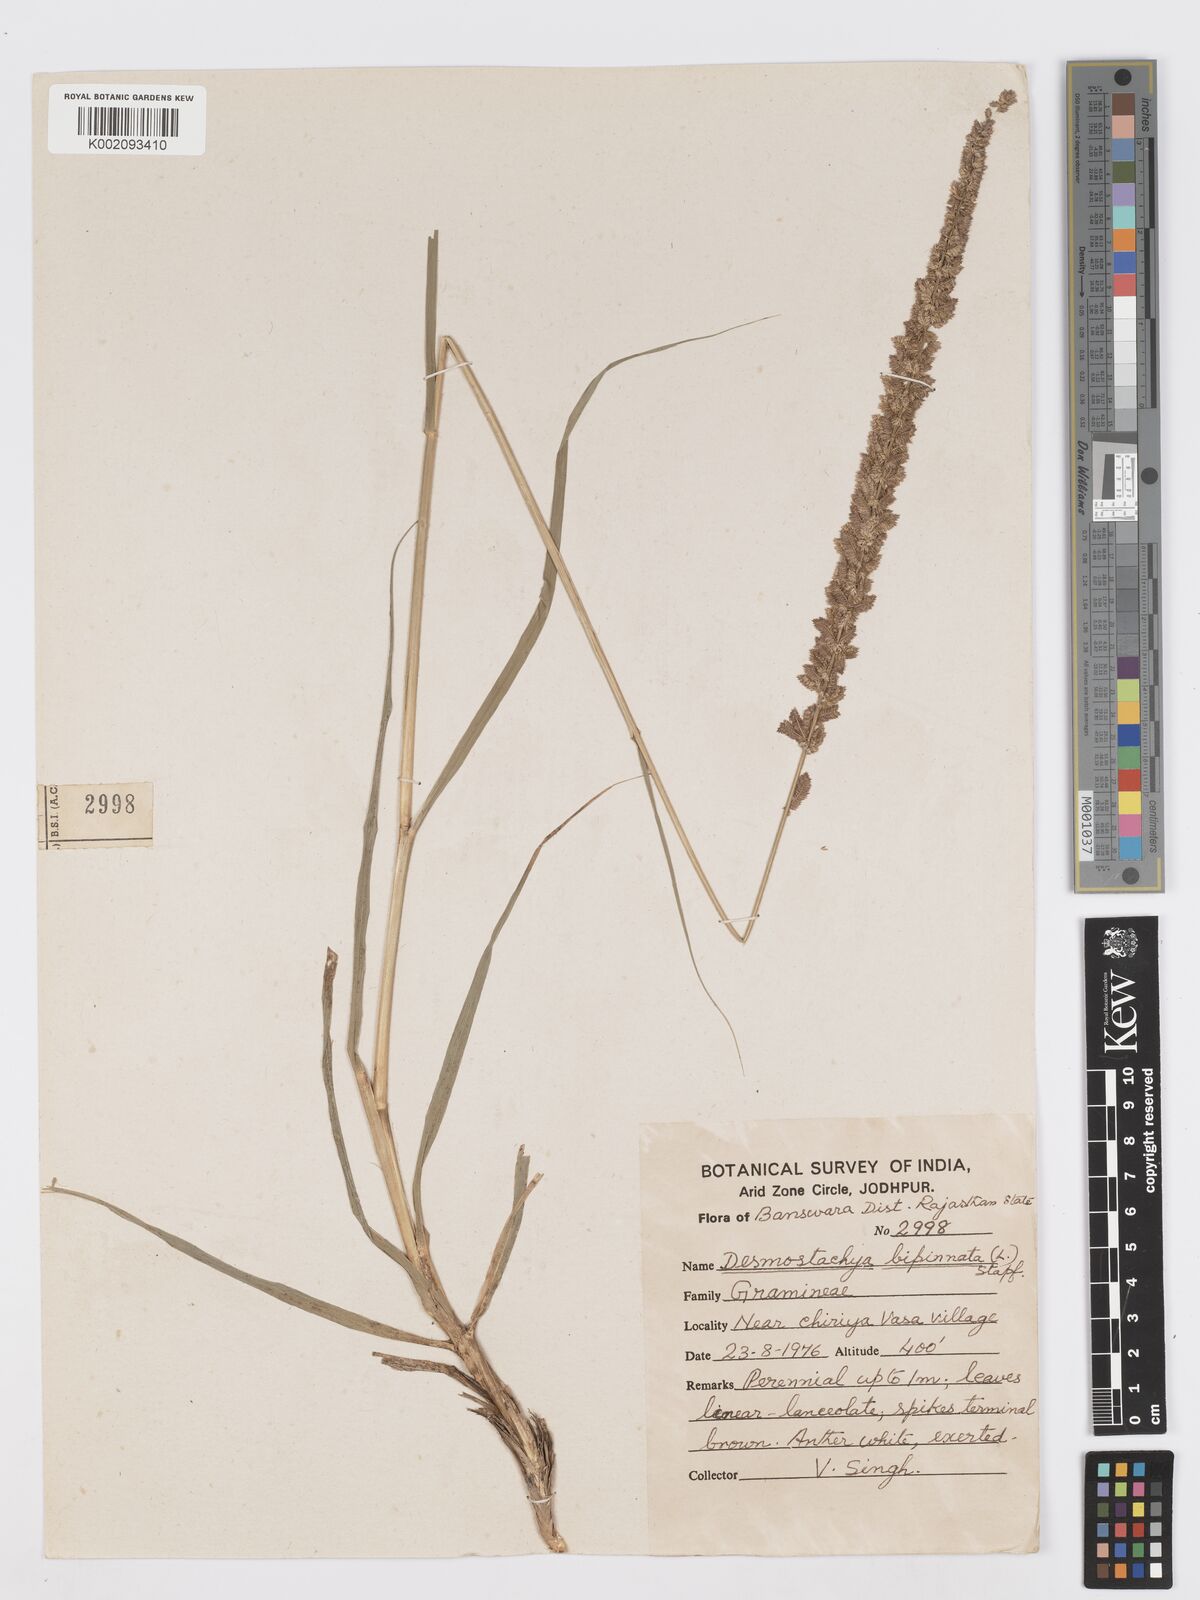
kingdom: Plantae
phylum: Tracheophyta
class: Liliopsida
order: Poales
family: Poaceae
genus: Desmostachya
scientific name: Desmostachya bipinnata
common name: Crowfoot grass
